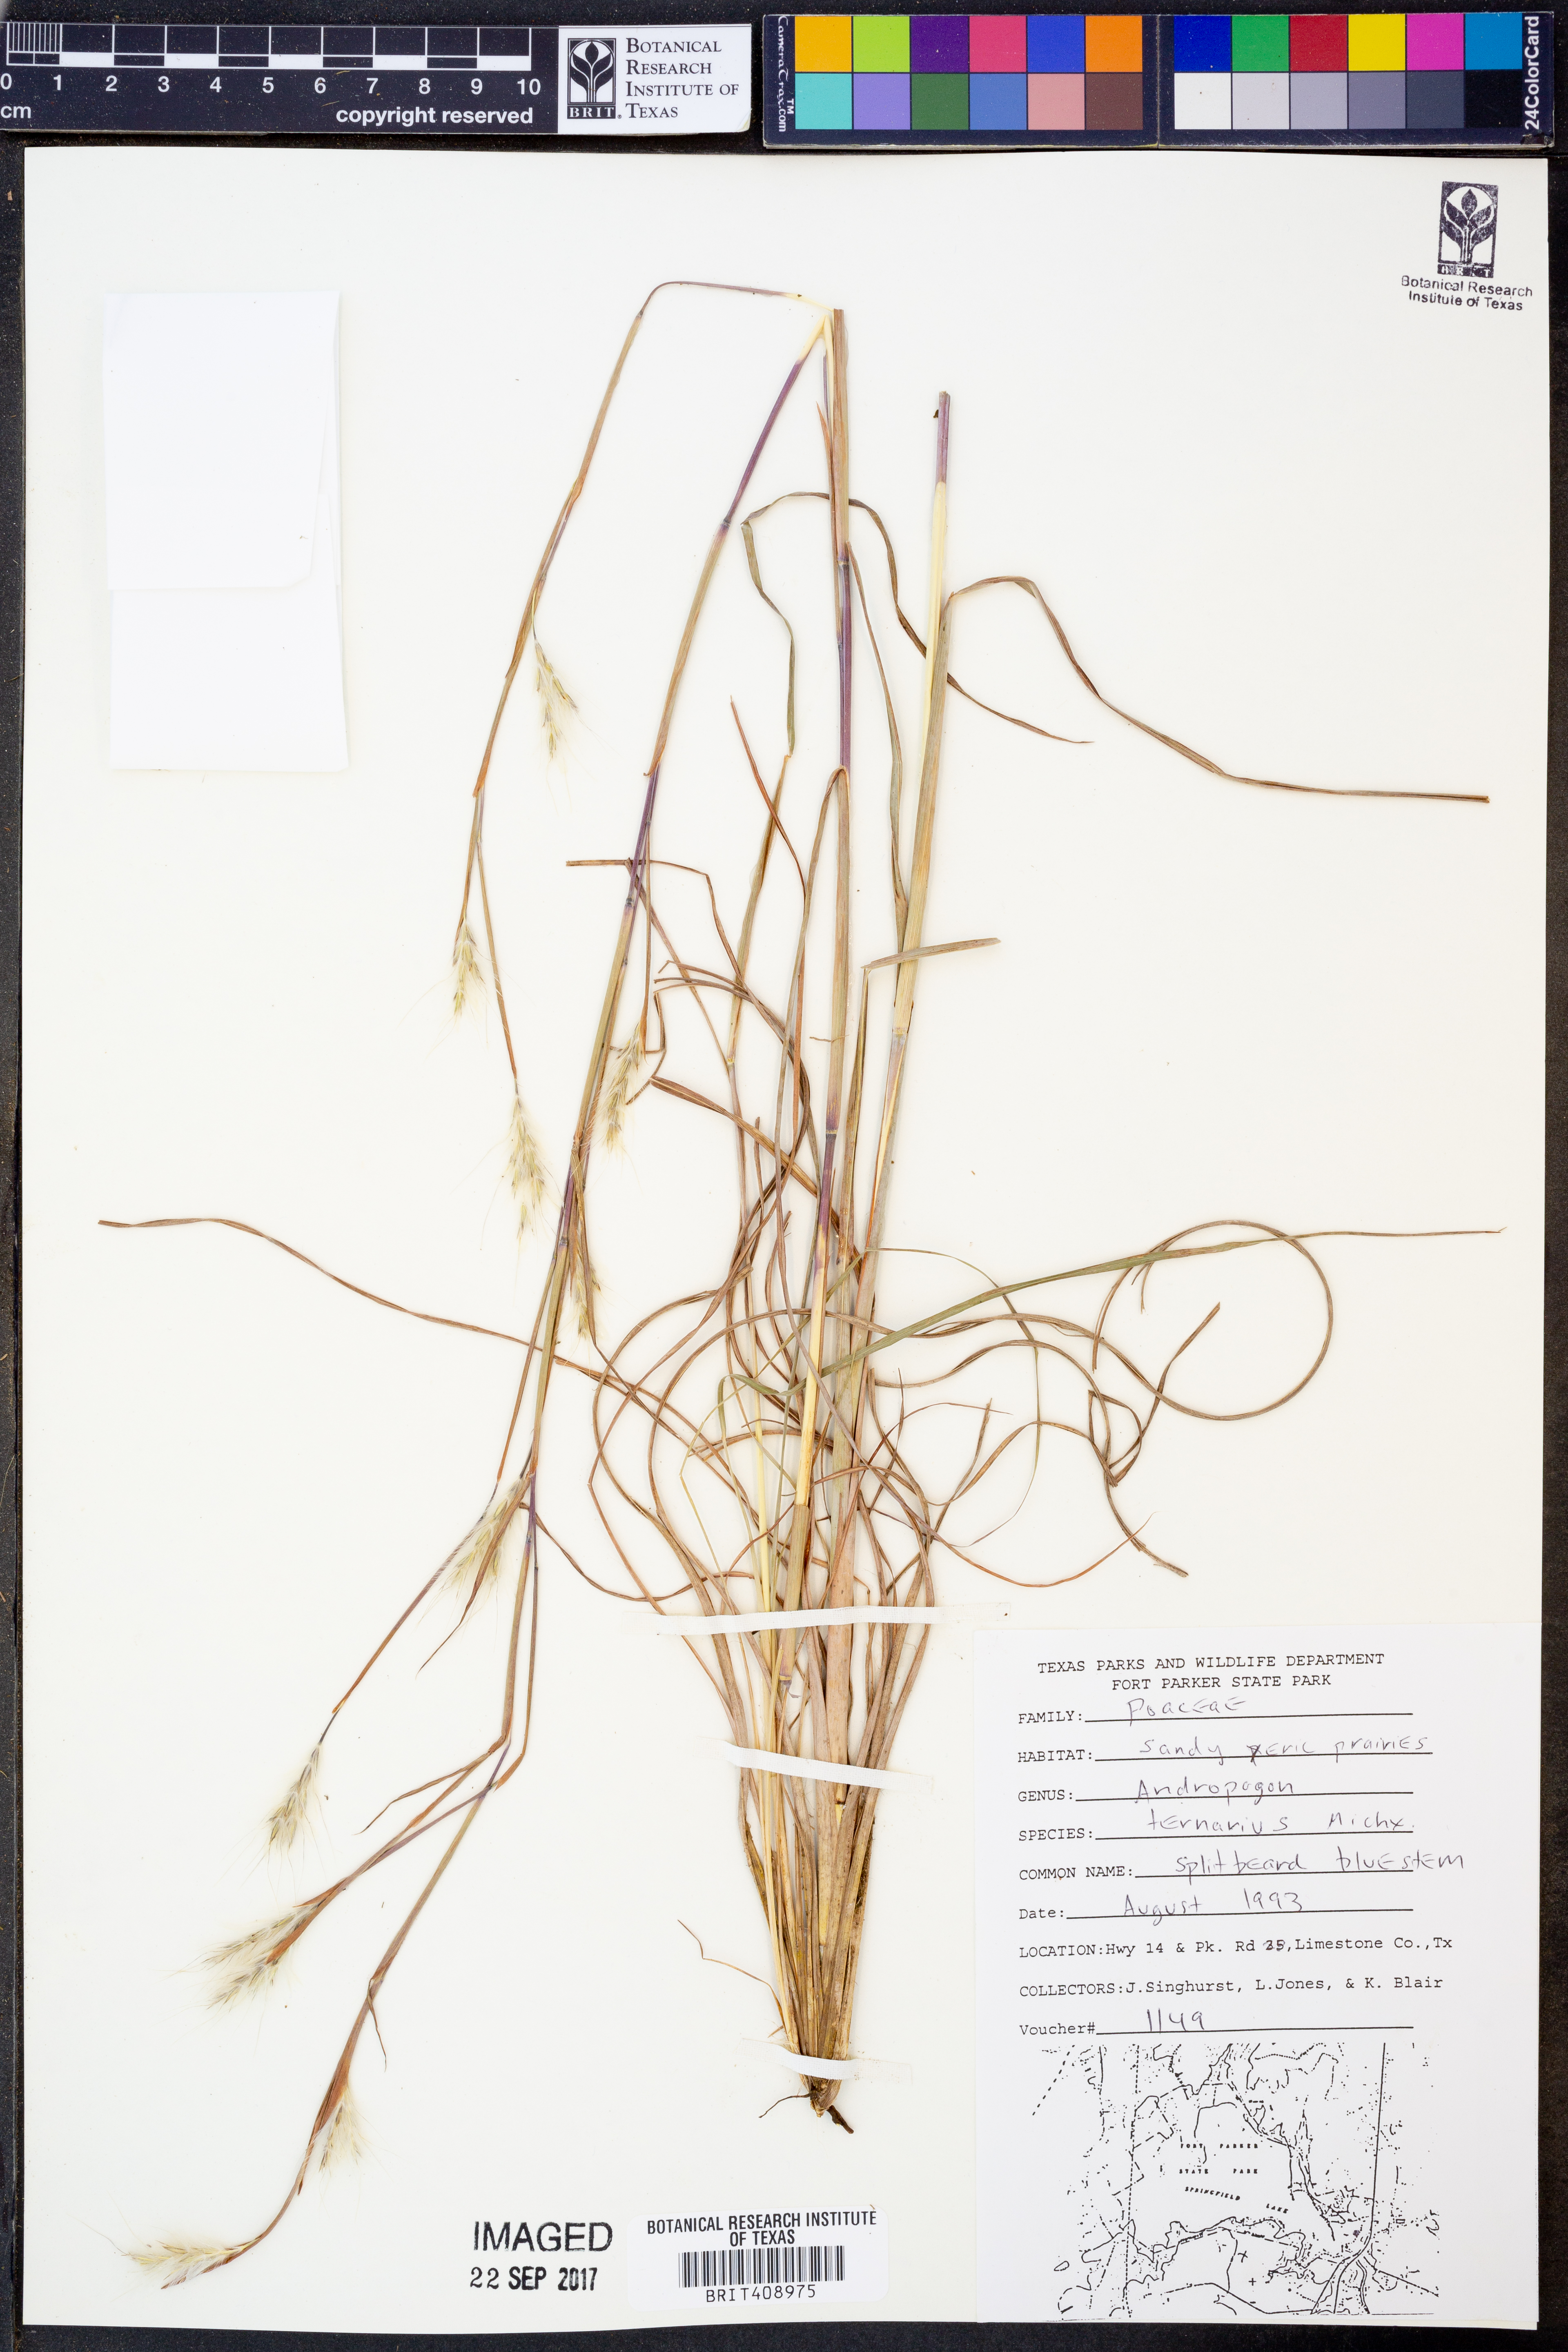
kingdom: Plantae
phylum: Tracheophyta
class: Liliopsida
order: Poales
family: Poaceae
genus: Andropogon
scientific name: Andropogon ternarius
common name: Split bluestem
